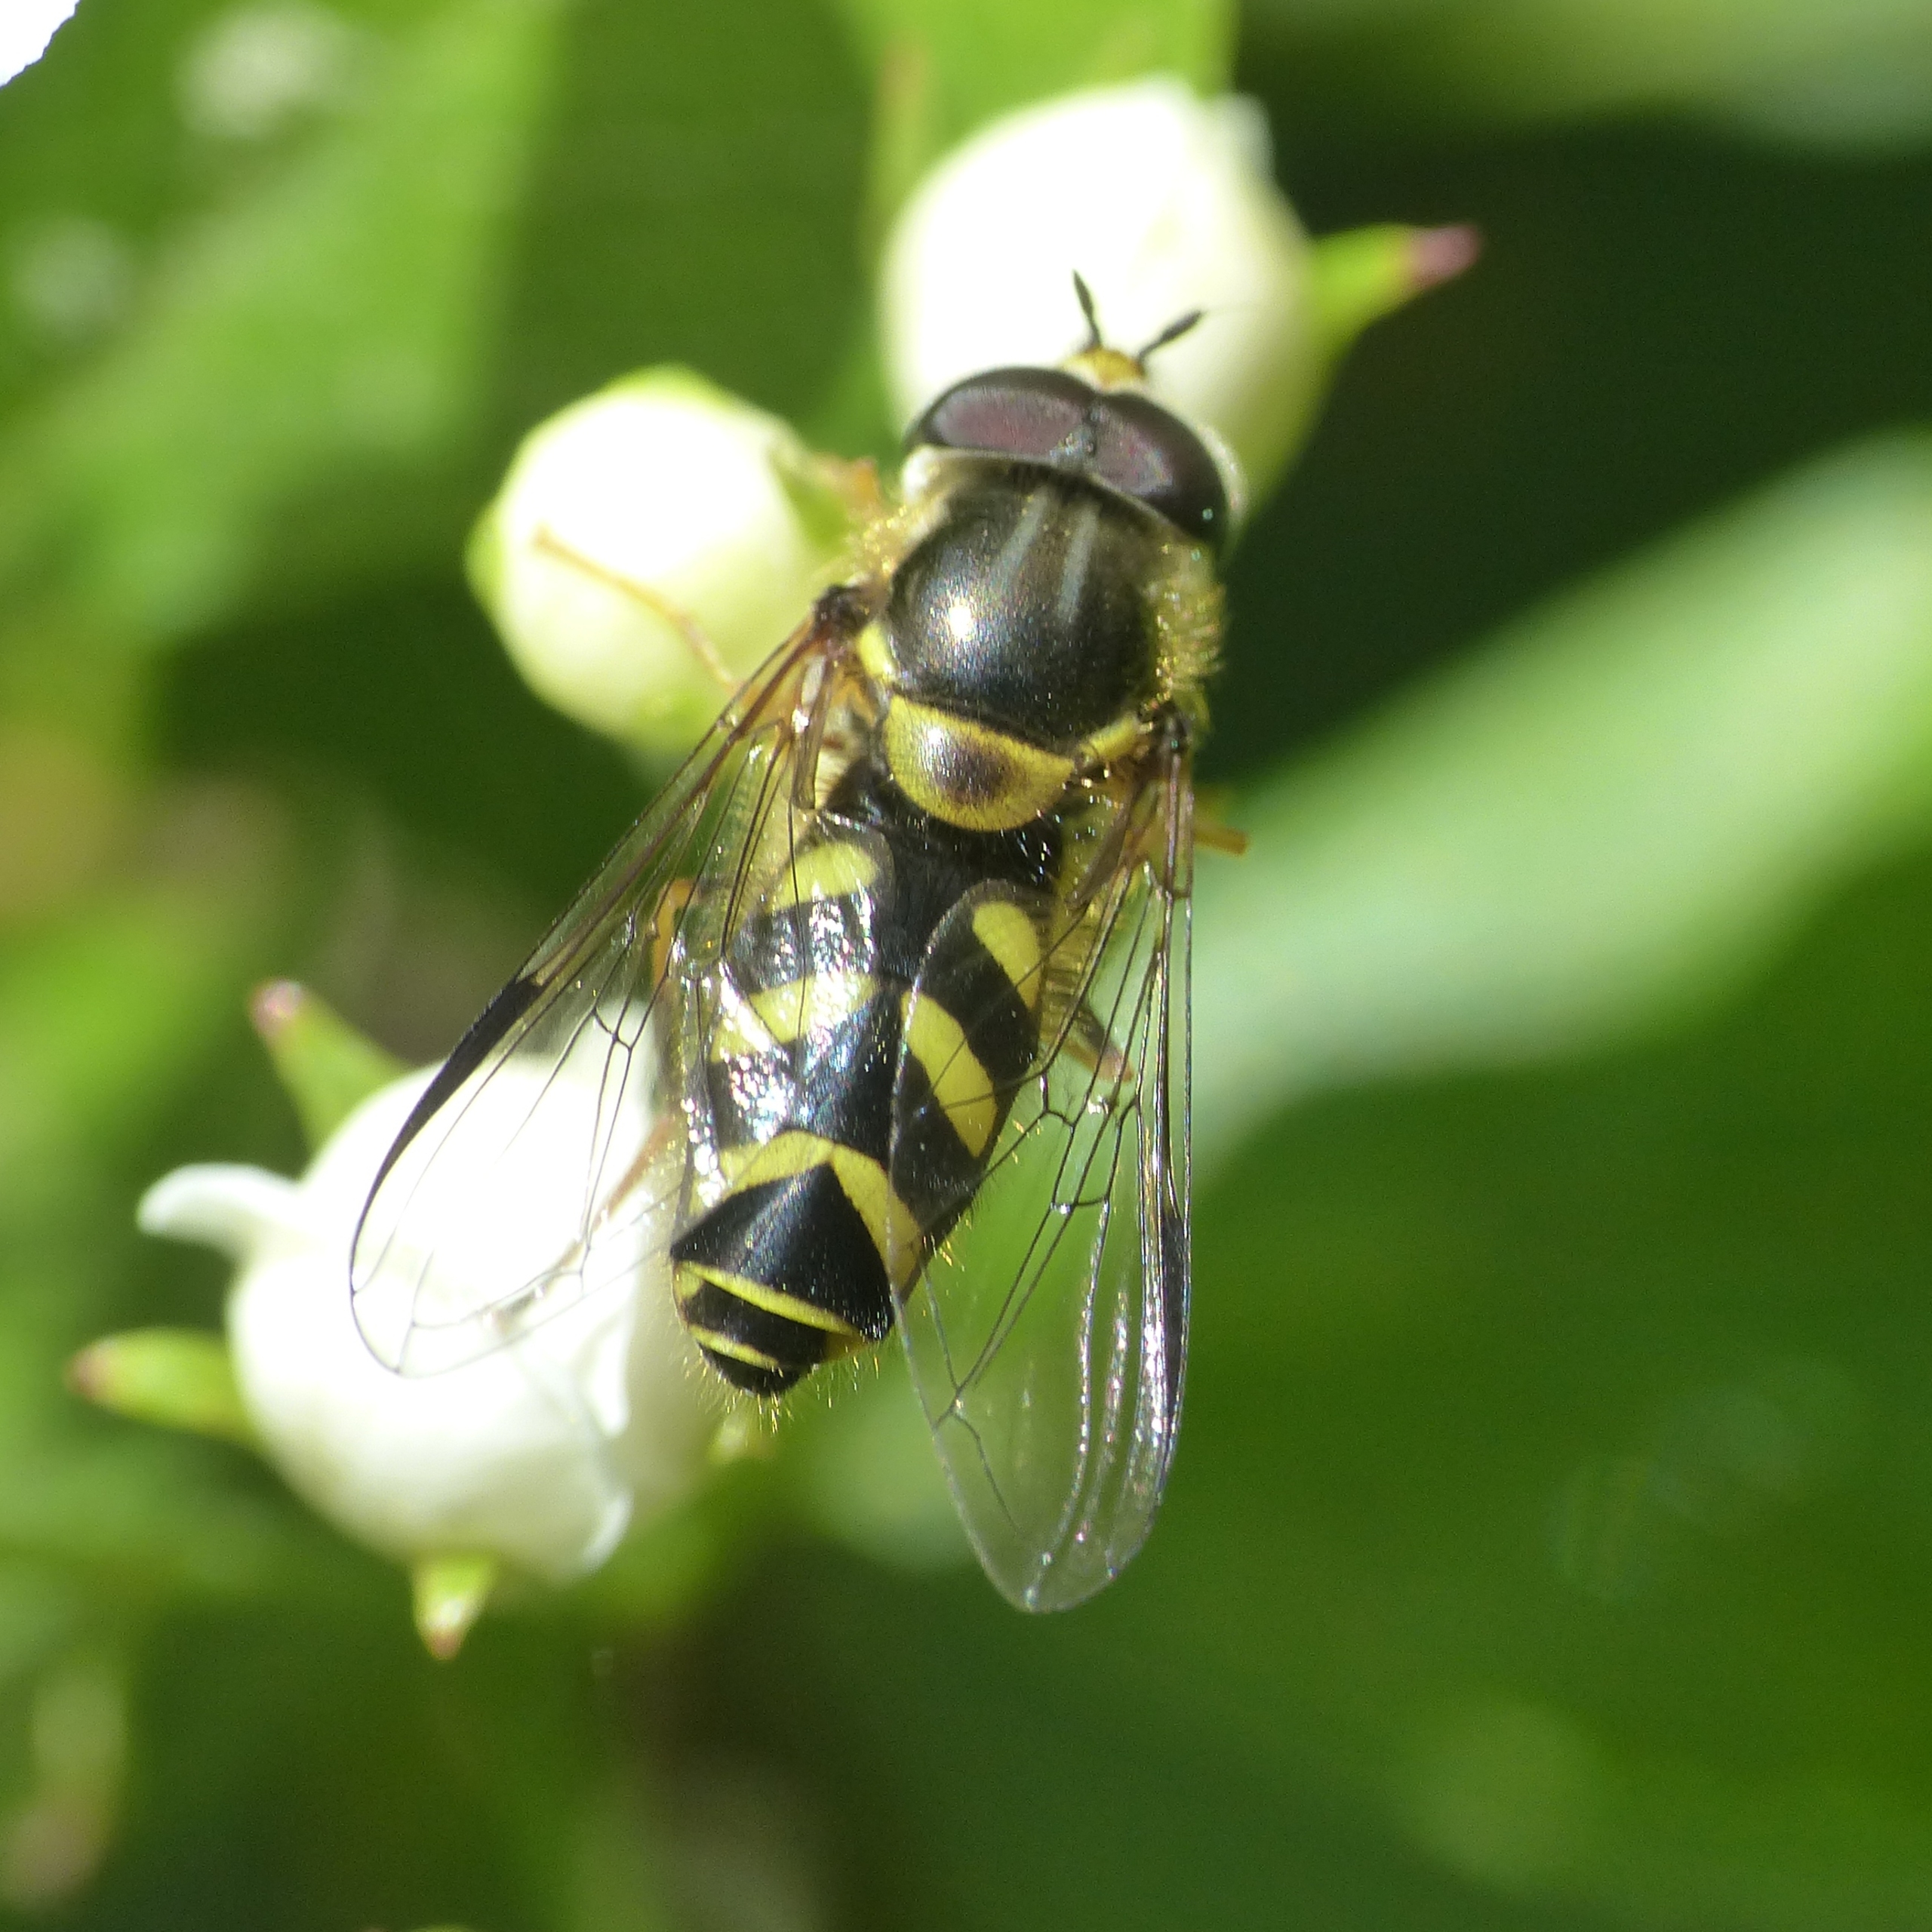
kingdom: Animalia
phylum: Arthropoda
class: Insecta
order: Diptera
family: Syrphidae
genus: Dasysyrphus
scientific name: Dasysyrphus albostriatus
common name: Stribet skovsvirreflue
